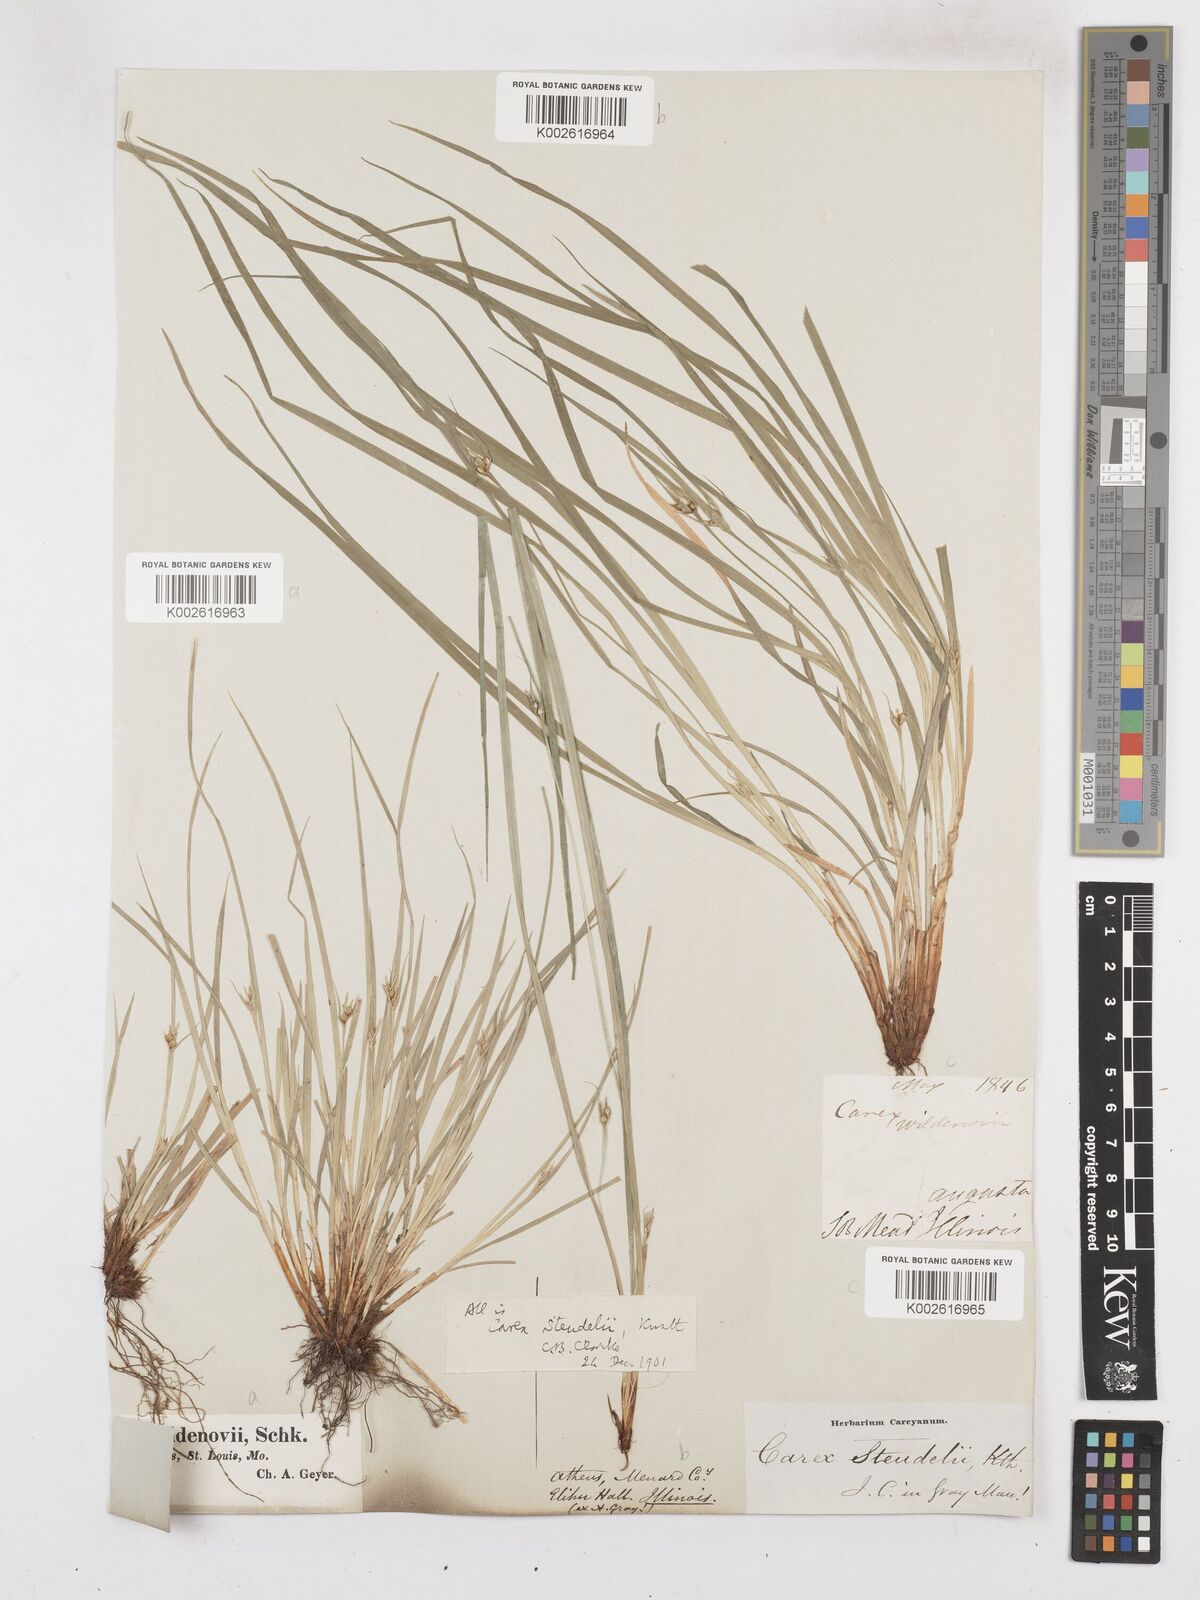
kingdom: Plantae
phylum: Tracheophyta
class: Liliopsida
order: Poales
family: Cyperaceae
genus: Carex
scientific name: Carex jamesii
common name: Grass sedge
